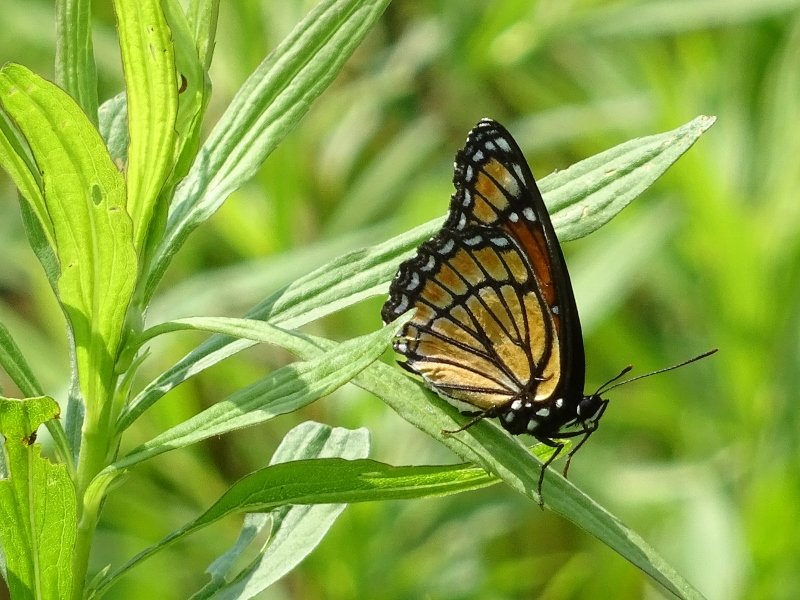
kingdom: Animalia
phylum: Arthropoda
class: Insecta
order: Lepidoptera
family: Nymphalidae
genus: Limenitis
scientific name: Limenitis archippus
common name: Viceroy
